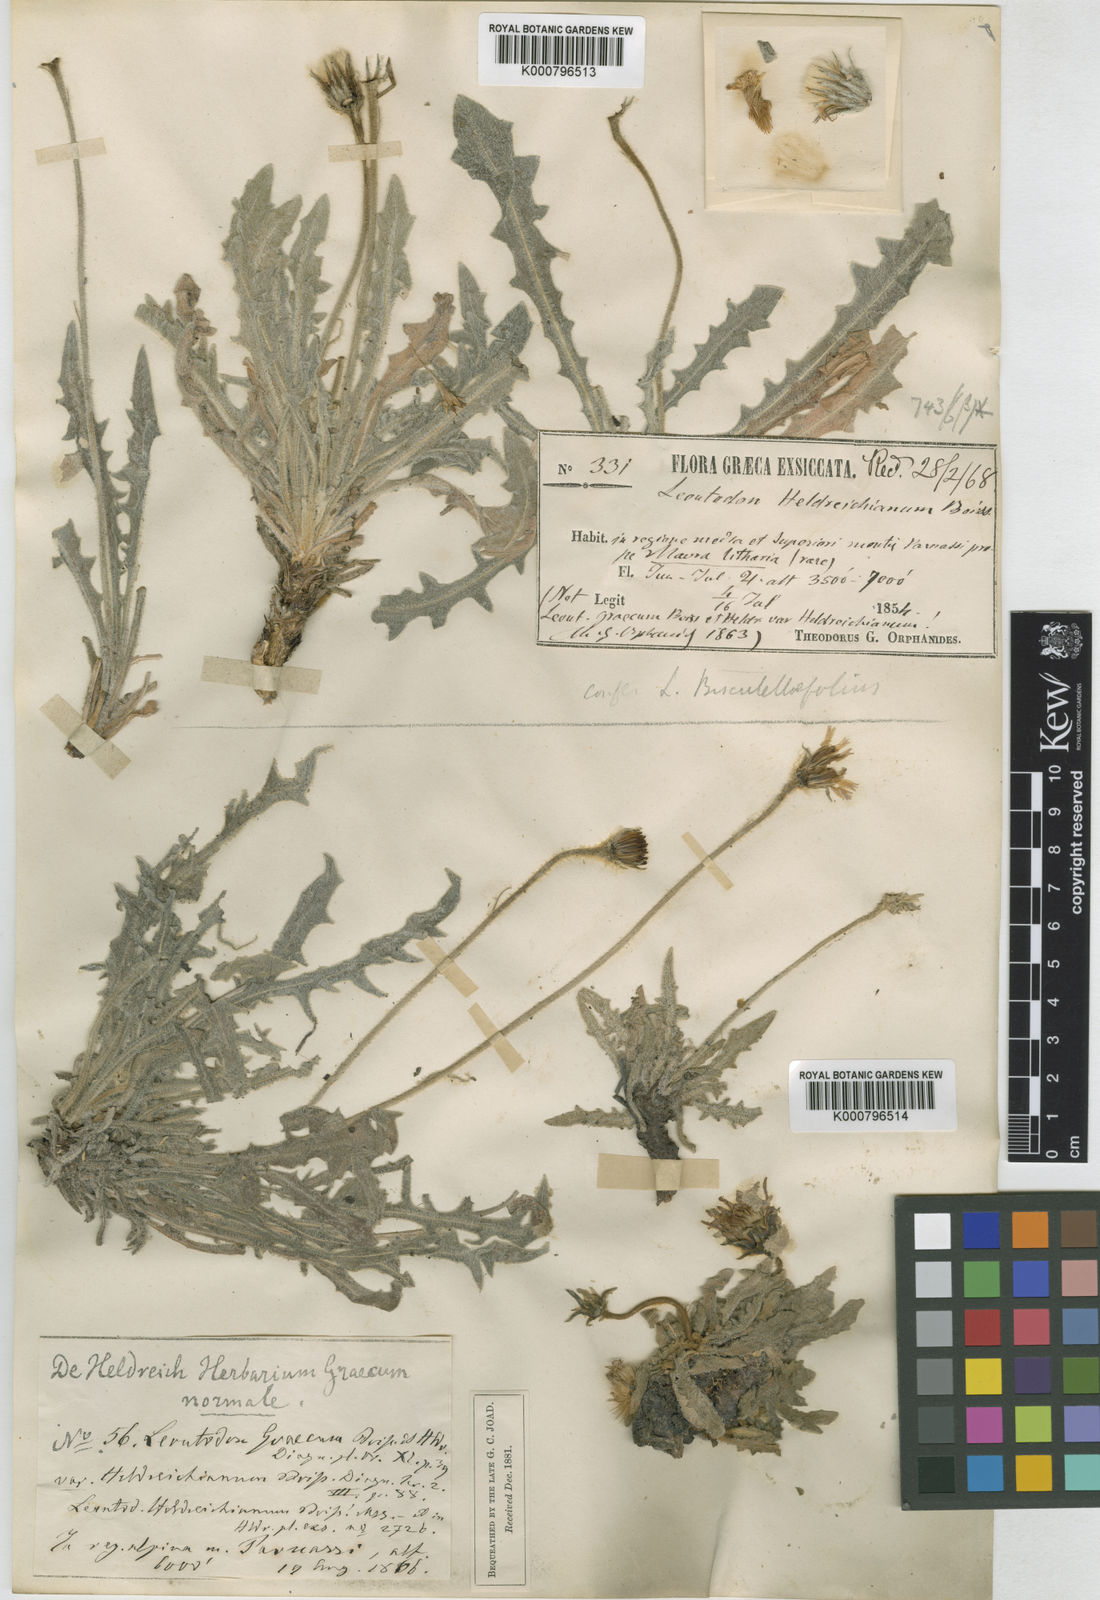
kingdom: Plantae
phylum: Tracheophyta
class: Magnoliopsida
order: Asterales
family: Asteraceae
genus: Leontodon
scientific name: Leontodon crispus
